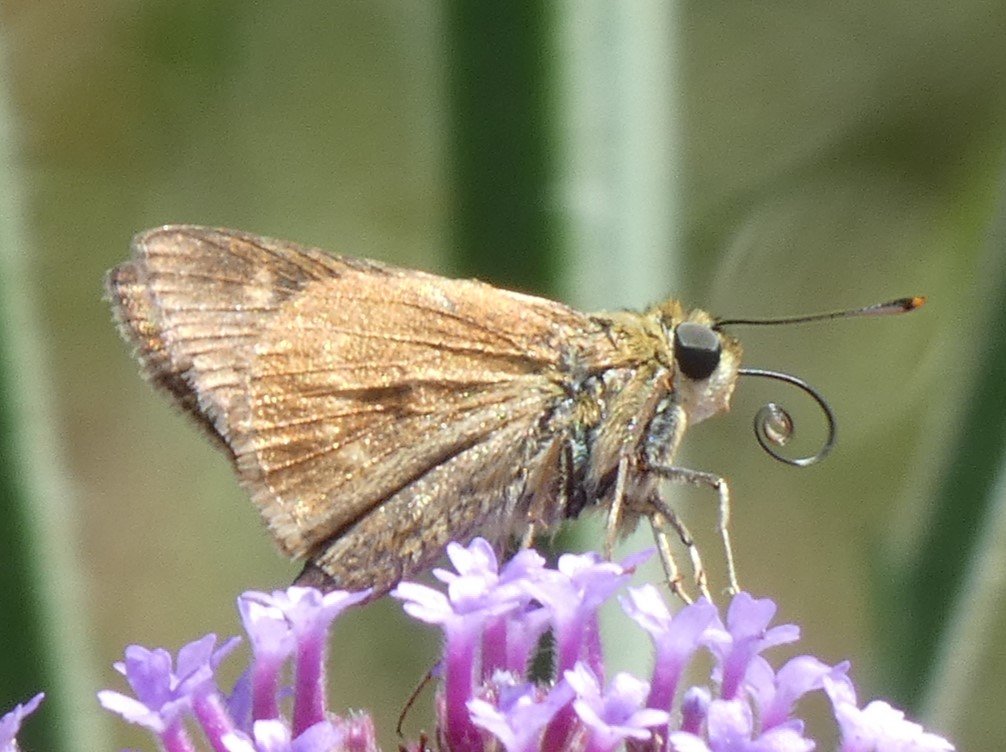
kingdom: Animalia
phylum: Arthropoda
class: Insecta
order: Lepidoptera
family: Hesperiidae
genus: Polites
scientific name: Polites egeremet
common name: Northern Broken-Dash
